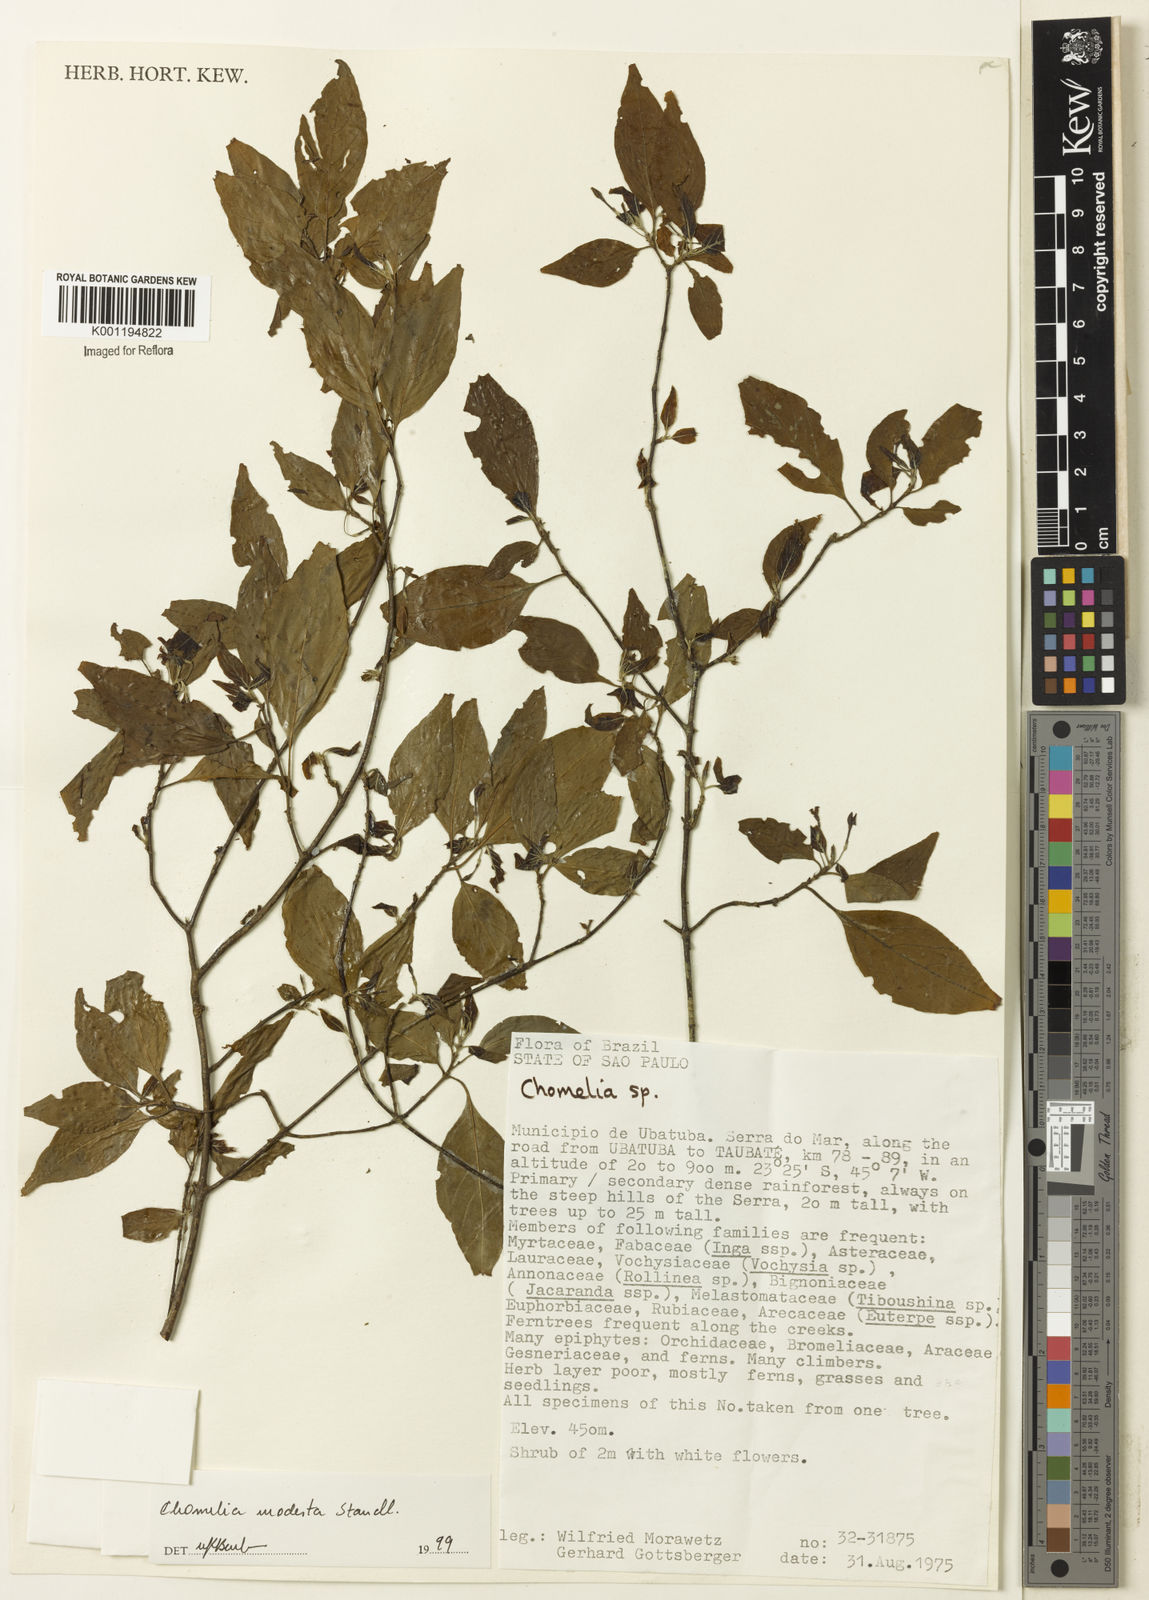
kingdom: Plantae
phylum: Tracheophyta
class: Magnoliopsida
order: Gentianales
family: Rubiaceae
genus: Chomelia
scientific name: Chomelia modesta
